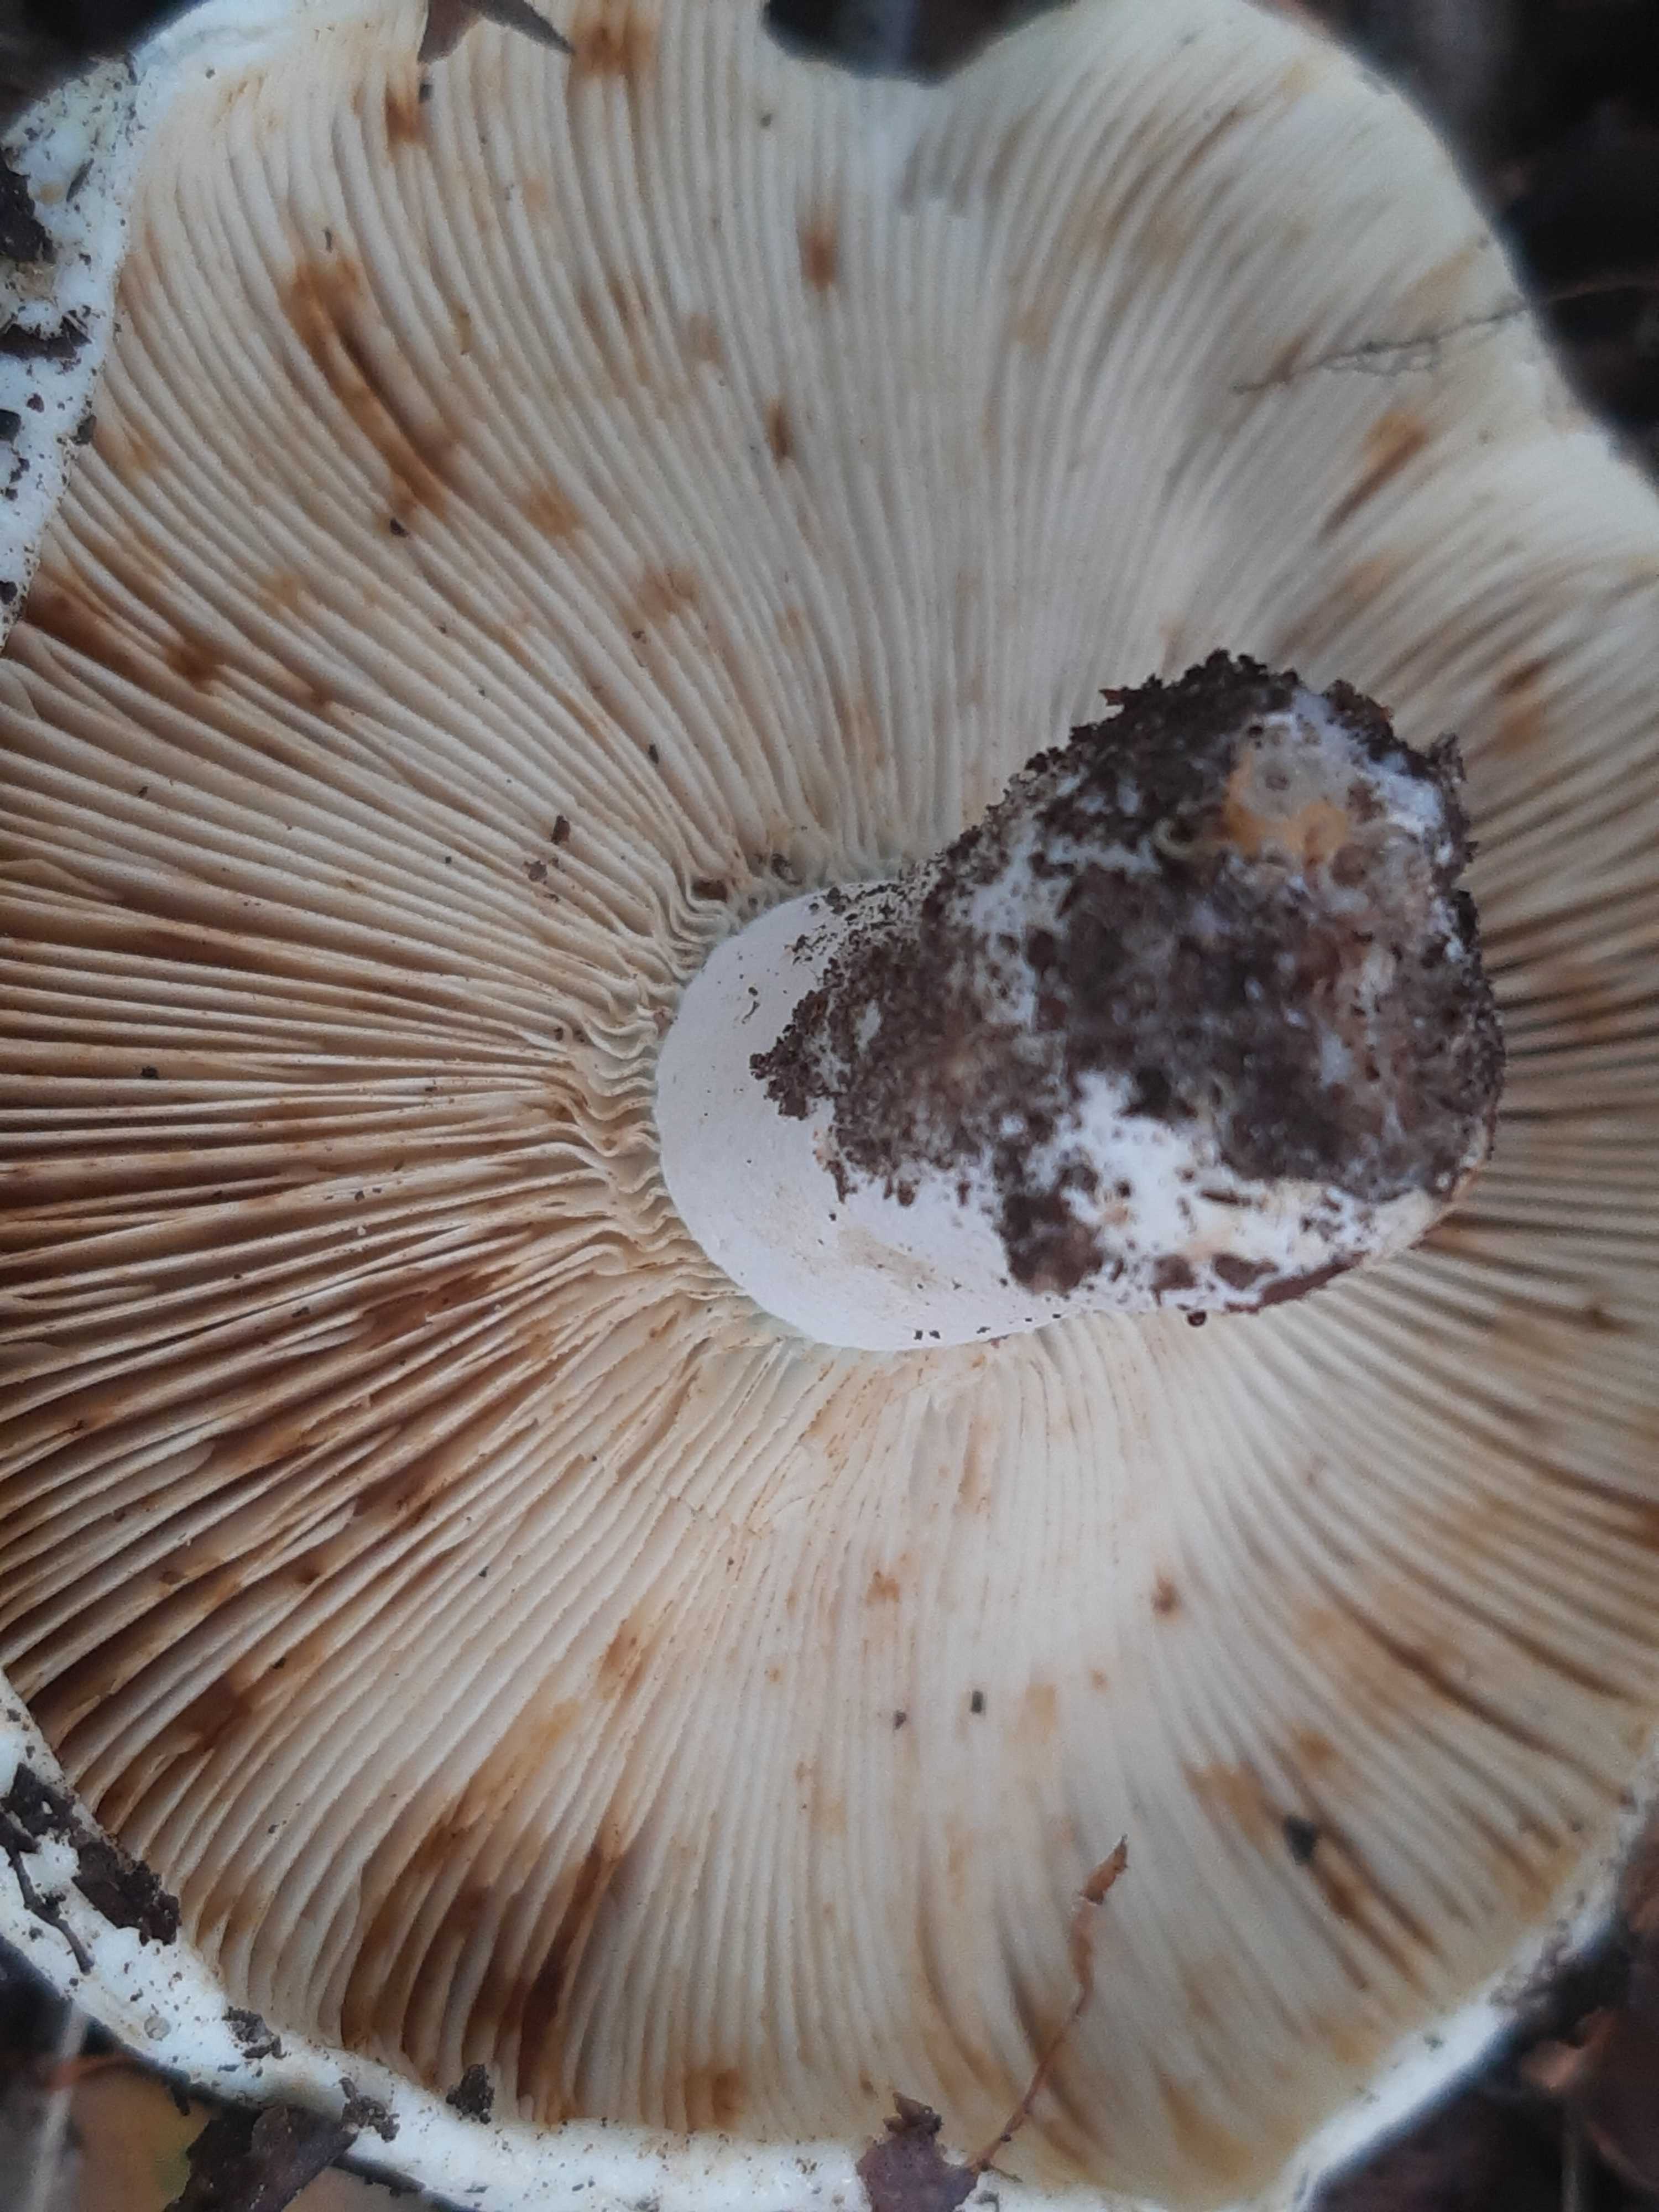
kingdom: Fungi
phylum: Basidiomycota
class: Agaricomycetes
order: Russulales
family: Russulaceae
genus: Russula
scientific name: Russula chloroides
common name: grønhalset tragt-skørhat
